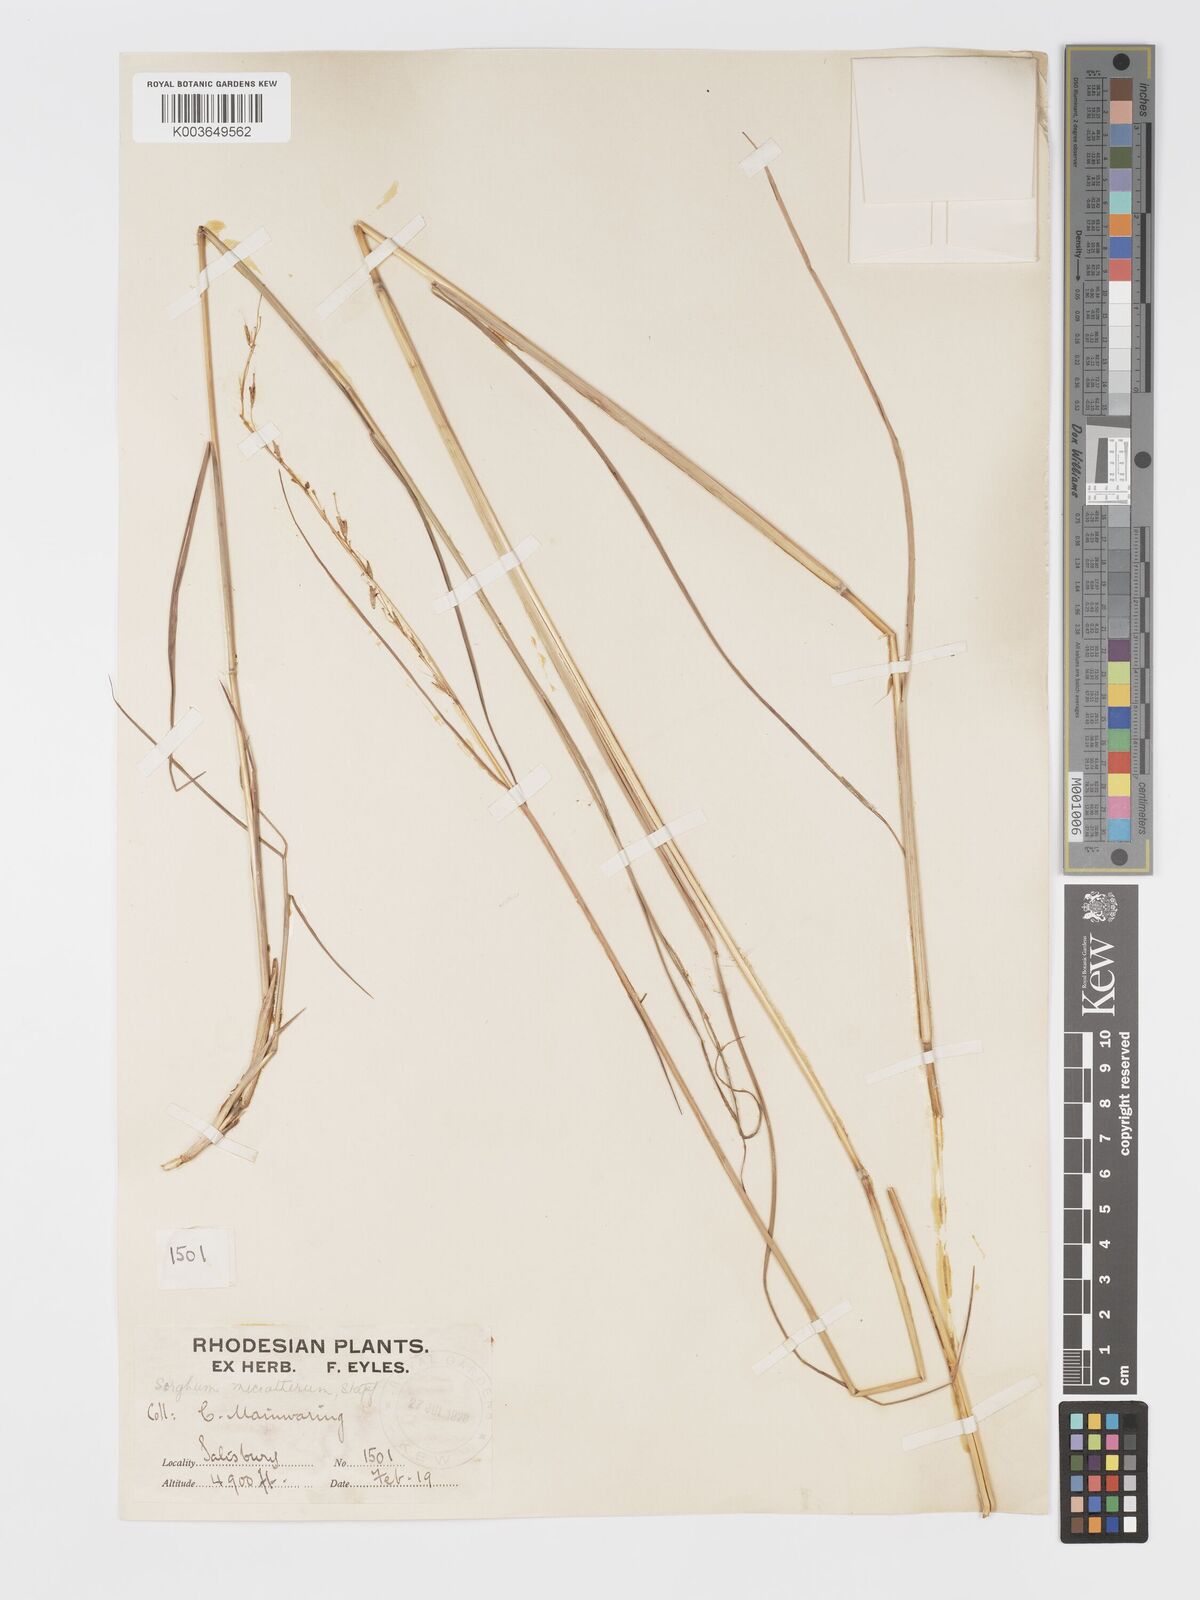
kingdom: Plantae
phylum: Tracheophyta
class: Liliopsida
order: Poales
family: Poaceae
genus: Sorghastrum
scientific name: Sorghastrum nudipes
